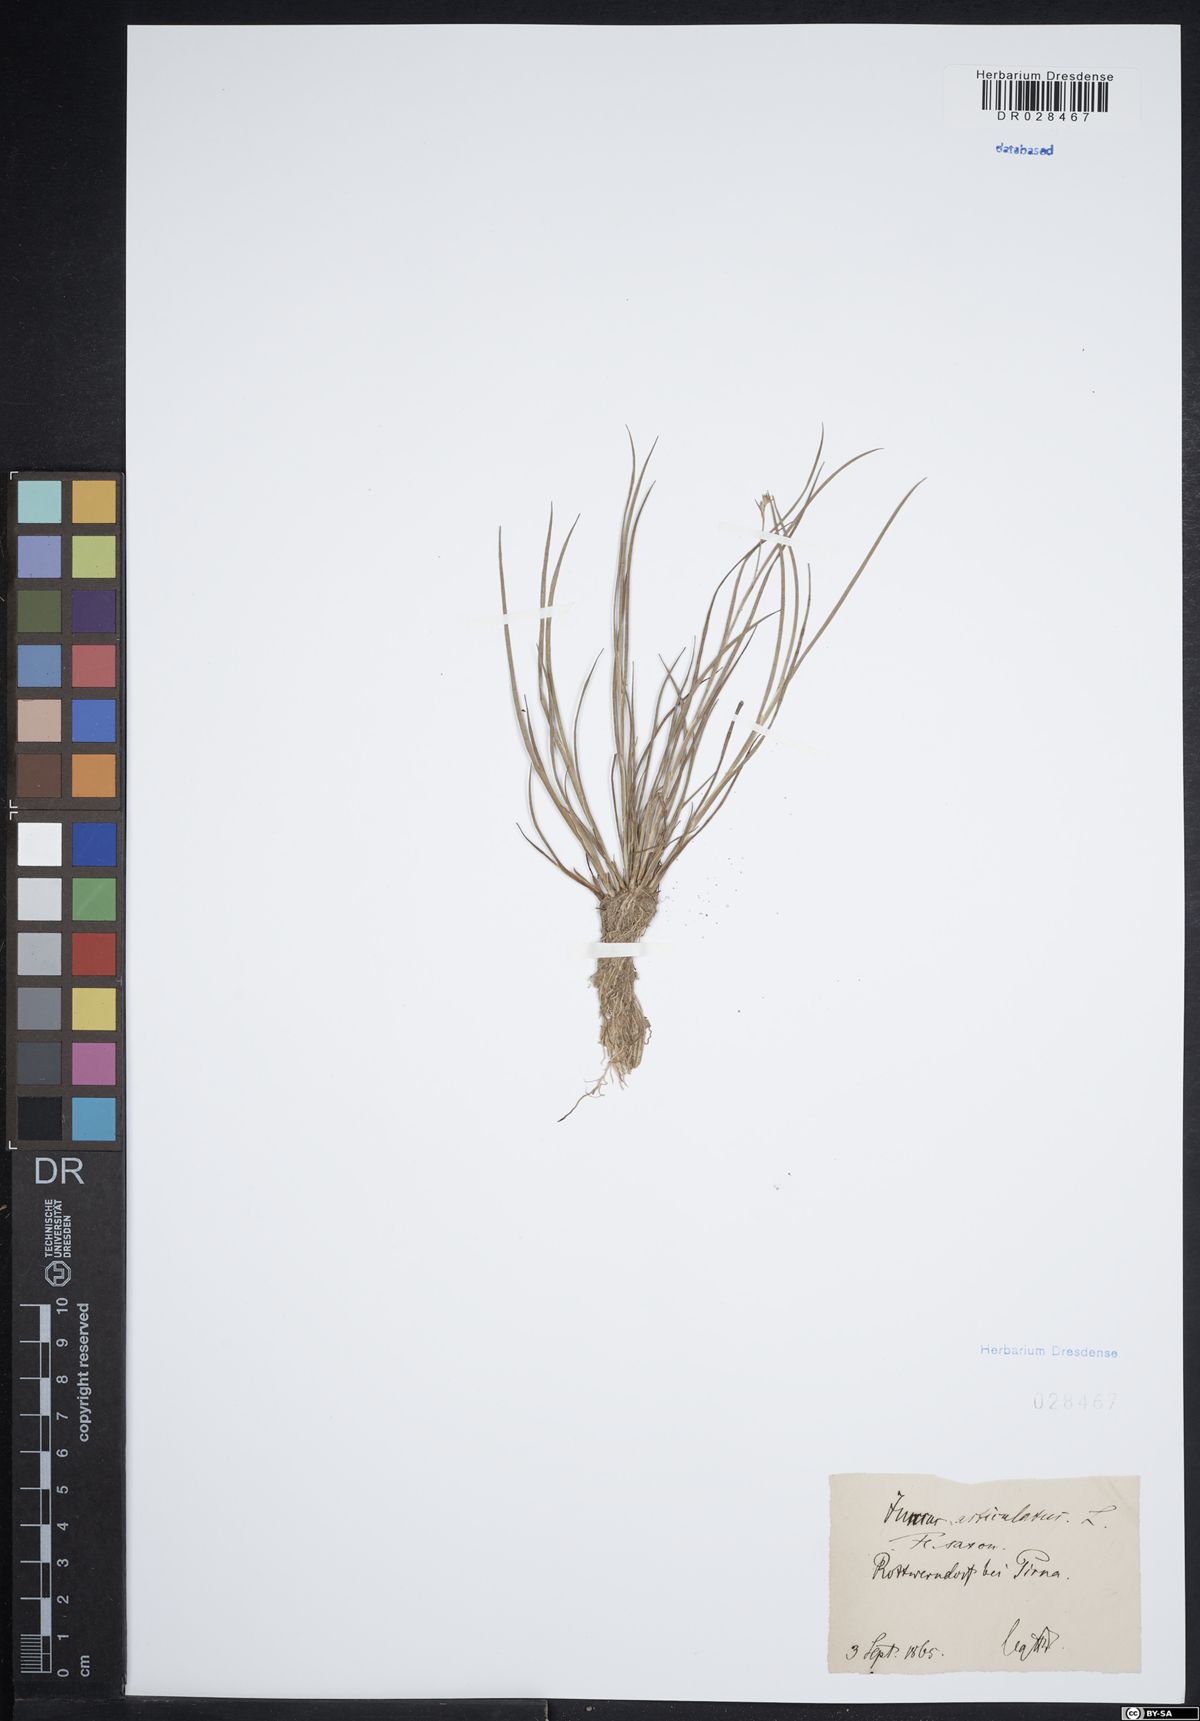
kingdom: Plantae
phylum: Tracheophyta
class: Liliopsida
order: Poales
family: Juncaceae
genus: Juncus
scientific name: Juncus articulatus
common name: Jointed rush
